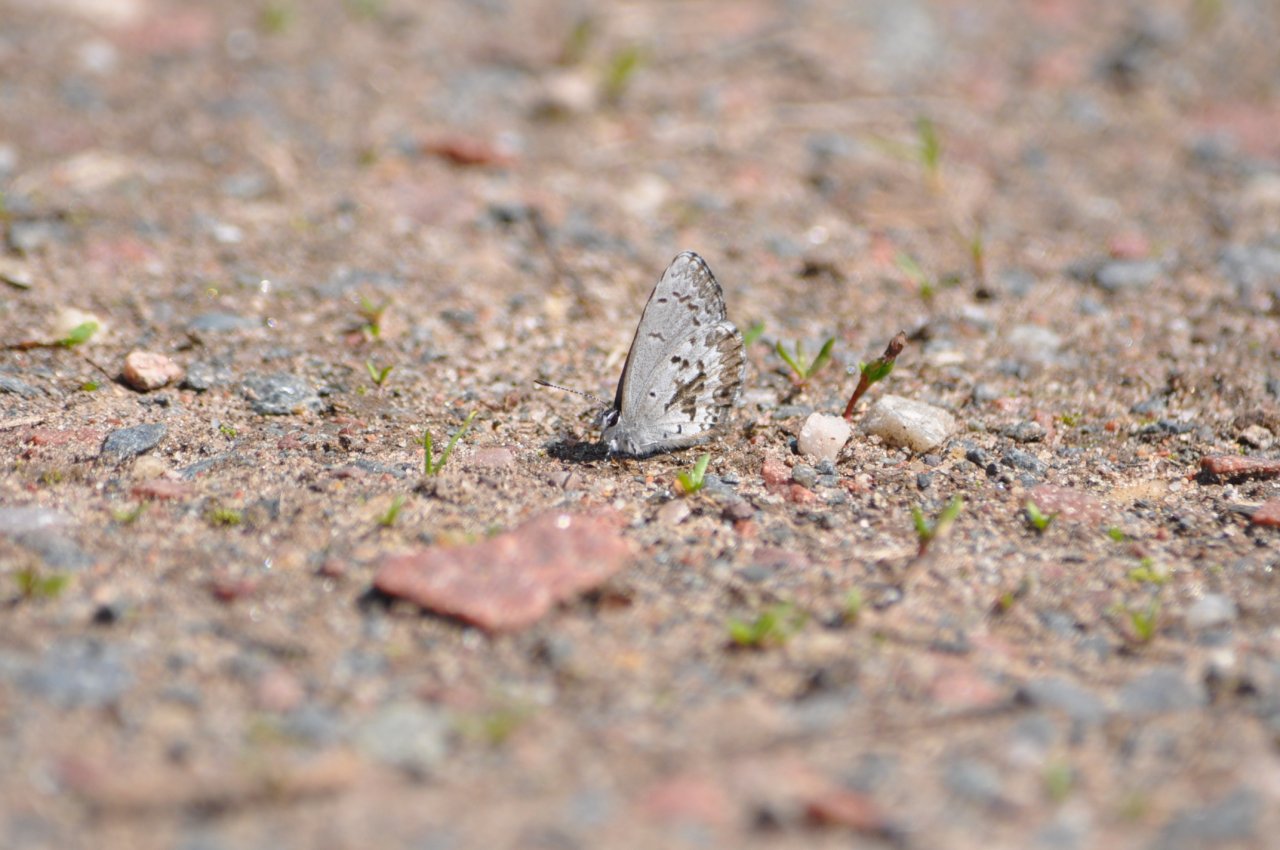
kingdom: Animalia
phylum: Arthropoda
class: Insecta
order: Lepidoptera
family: Lycaenidae
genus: Celastrina
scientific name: Celastrina lucia
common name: Northern Spring Azure
